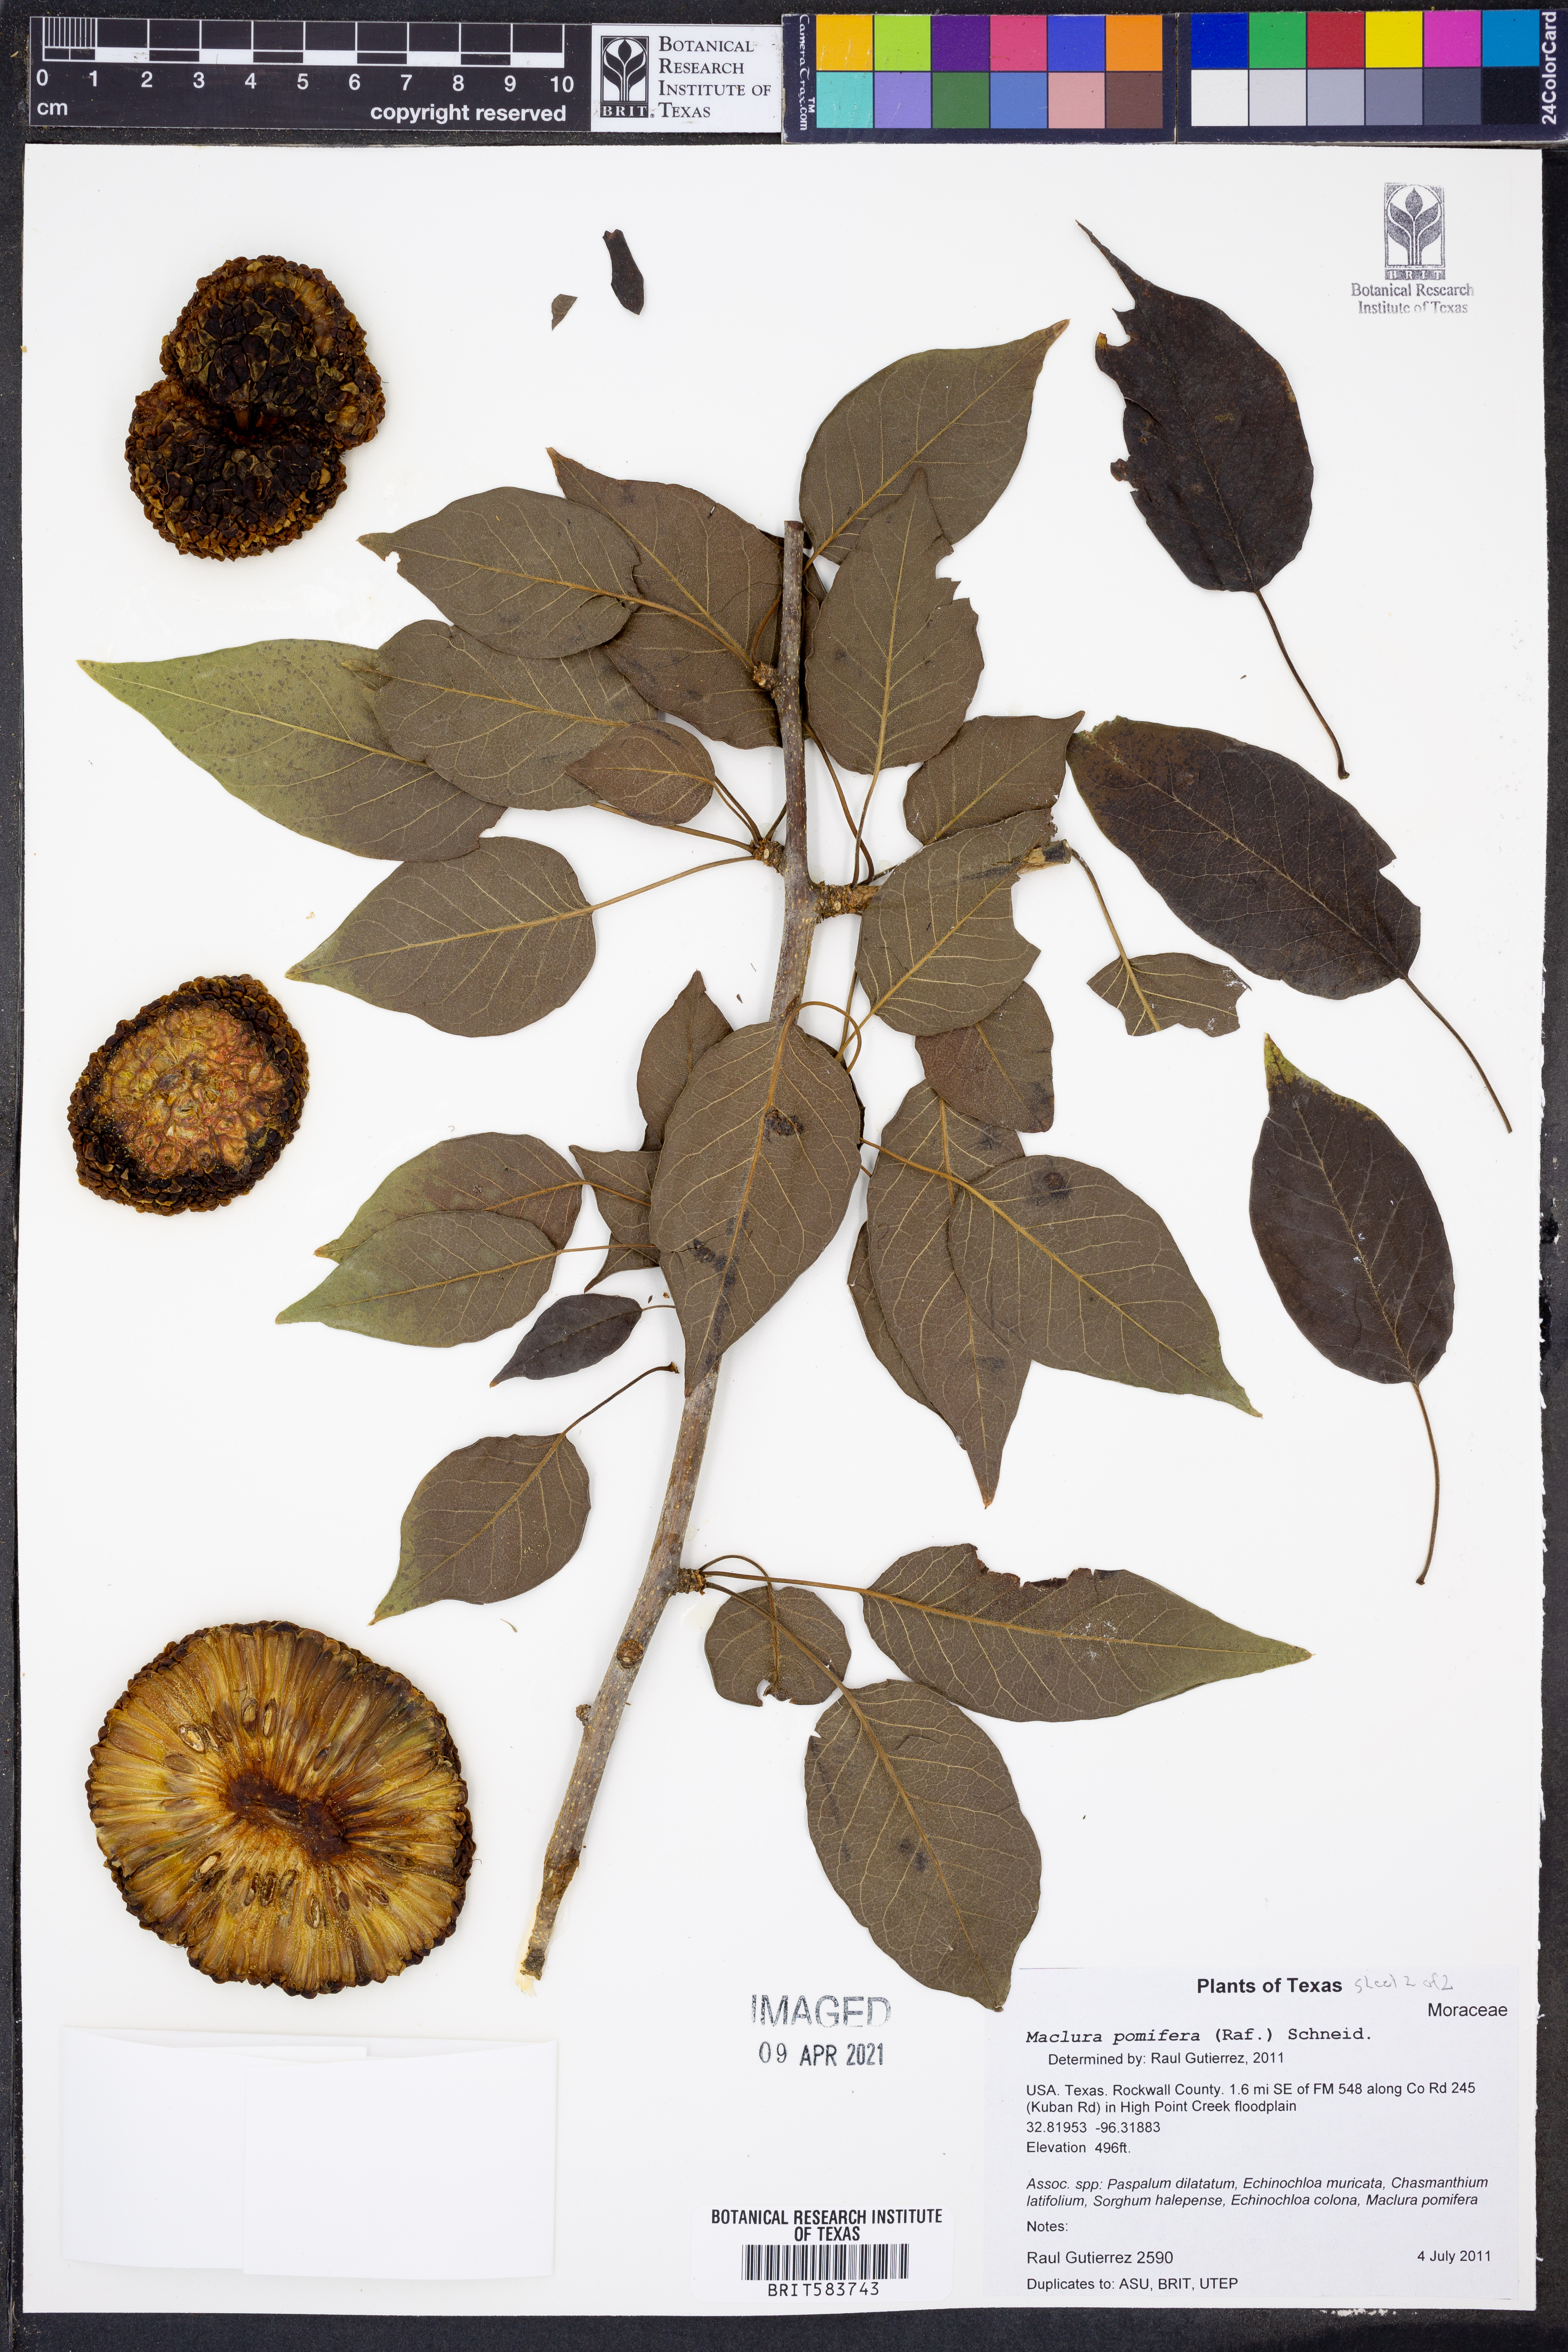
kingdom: Plantae
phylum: Tracheophyta
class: Magnoliopsida
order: Rosales
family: Moraceae
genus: Maclura
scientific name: Maclura pomifera
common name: Osage-orange
